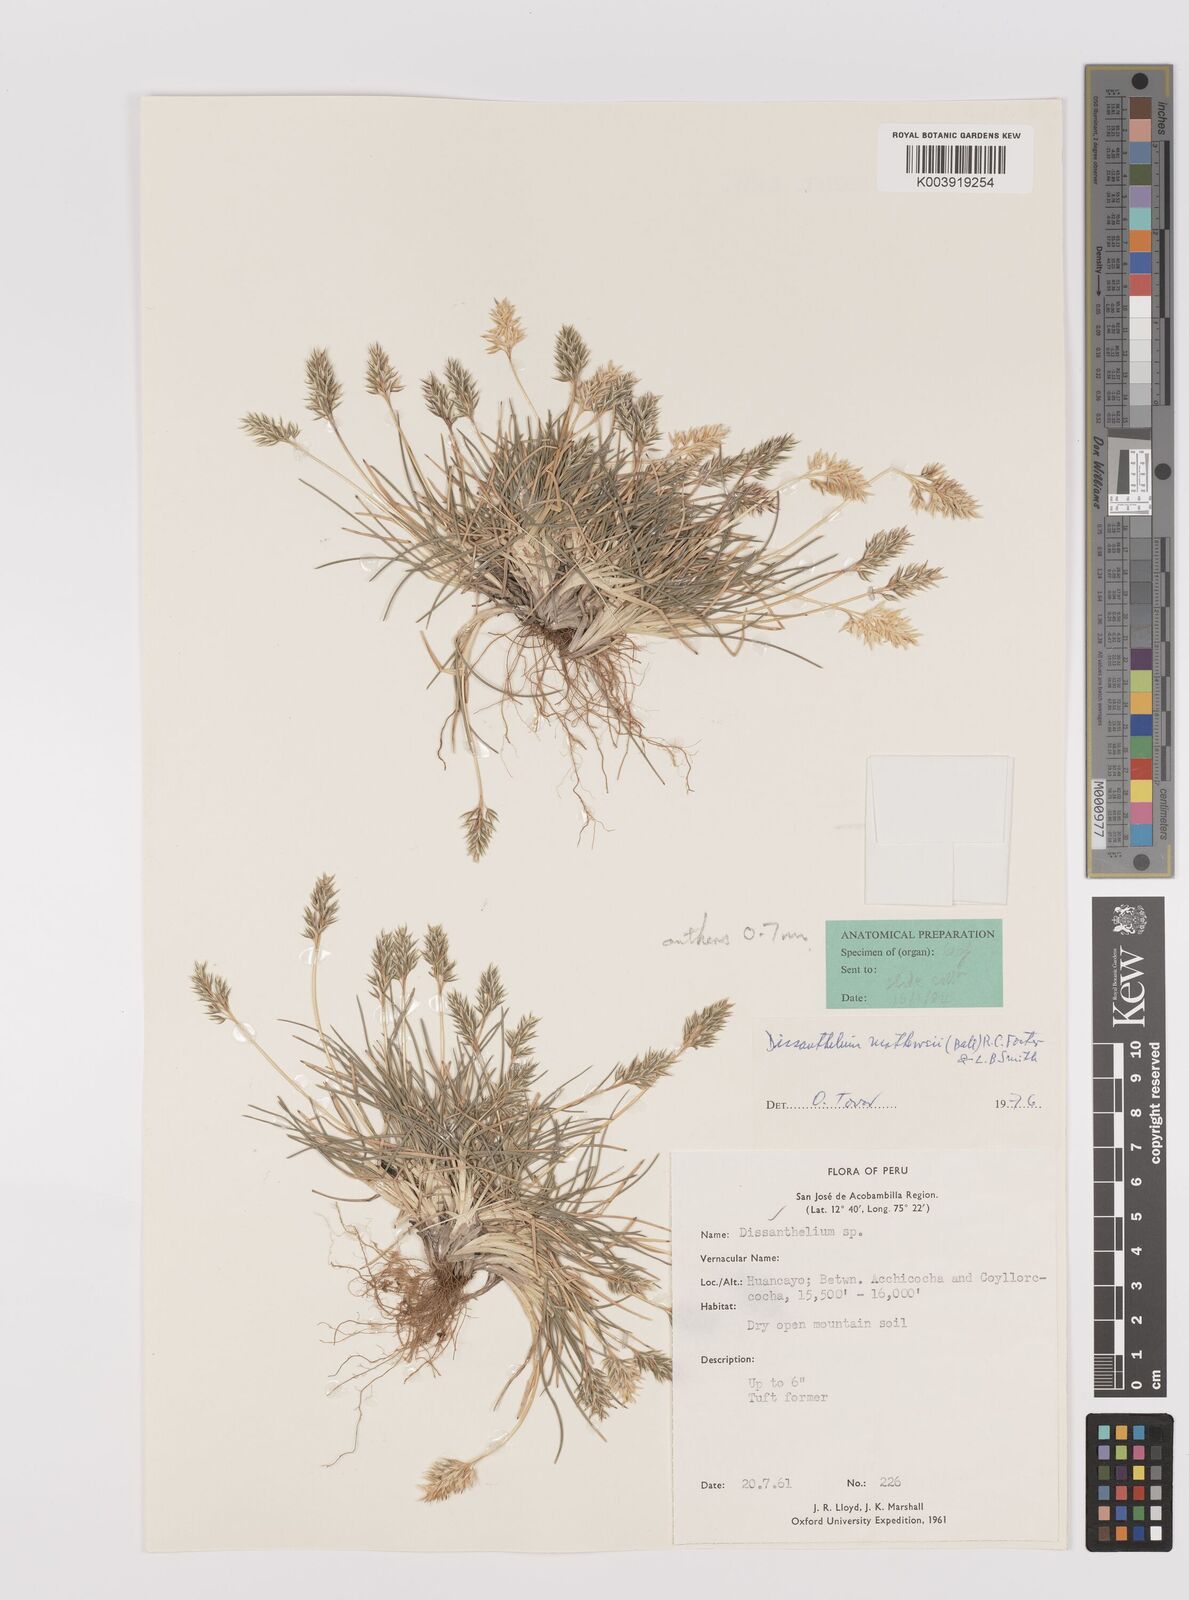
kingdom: Plantae
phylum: Tracheophyta
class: Liliopsida
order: Poales
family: Poaceae
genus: Poa
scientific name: Poa calycina
